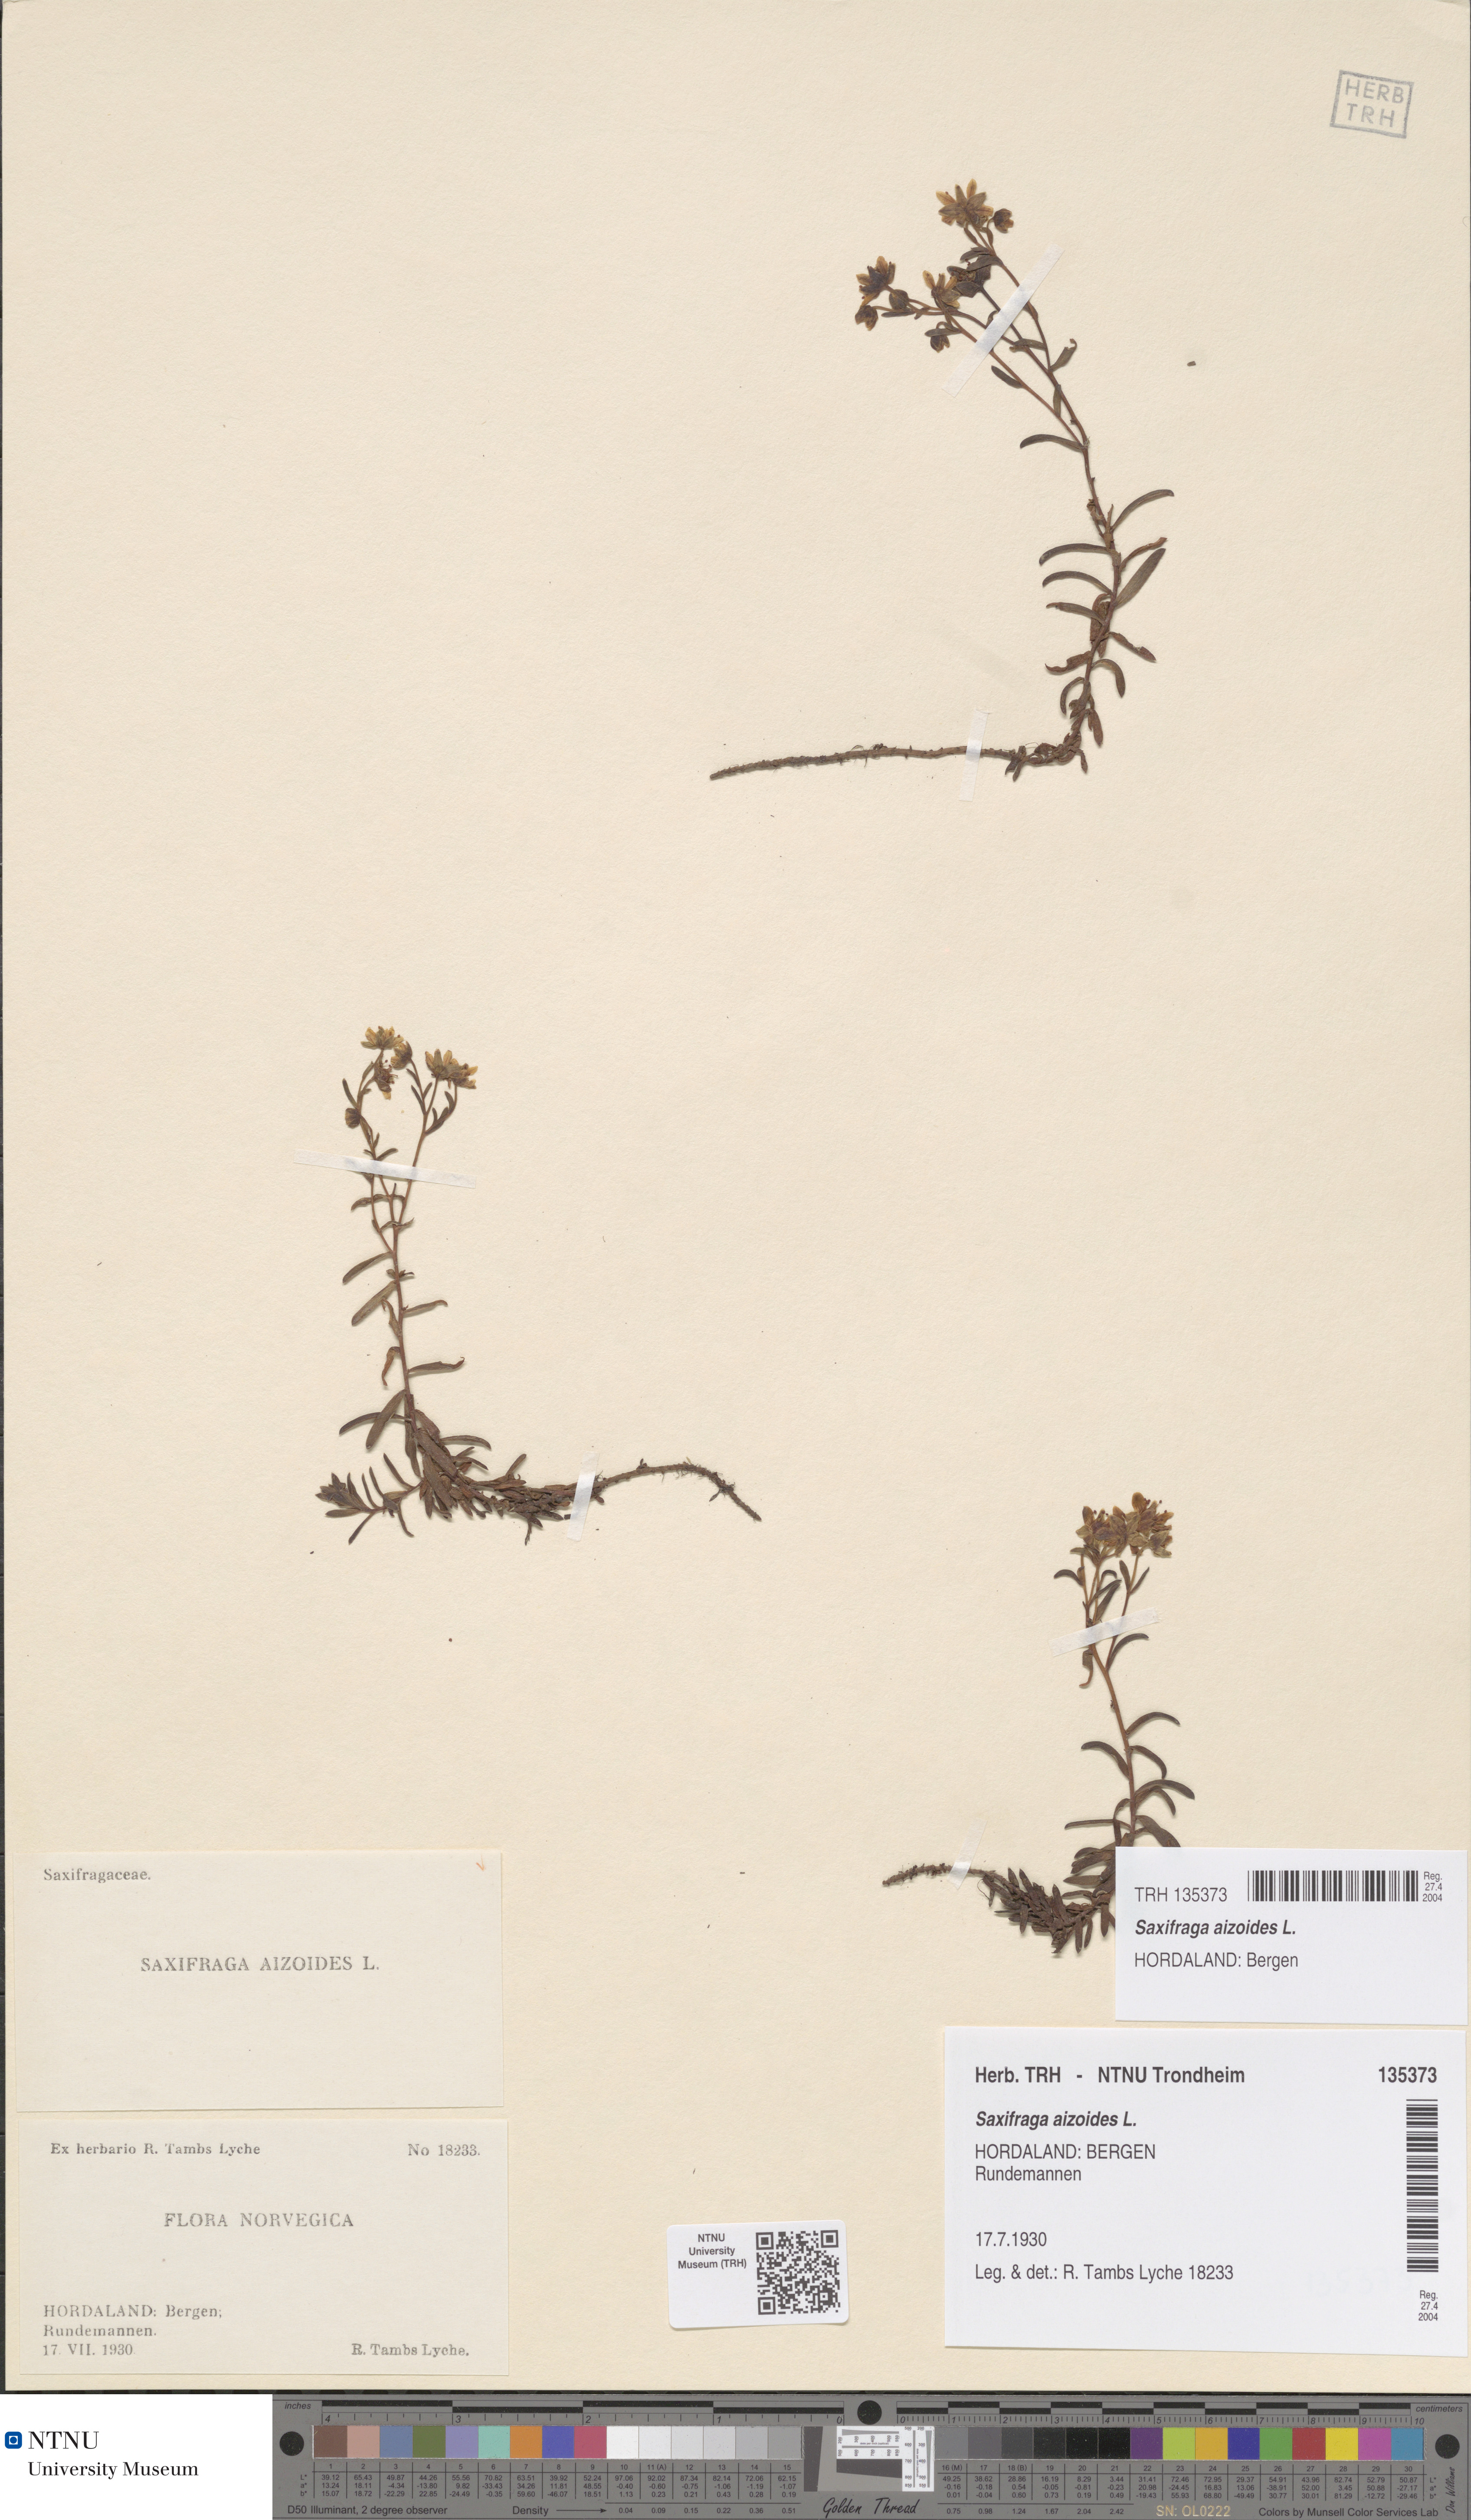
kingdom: Plantae
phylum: Tracheophyta
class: Magnoliopsida
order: Saxifragales
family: Saxifragaceae
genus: Saxifraga
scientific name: Saxifraga aizoides
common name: Yellow mountain saxifrage
